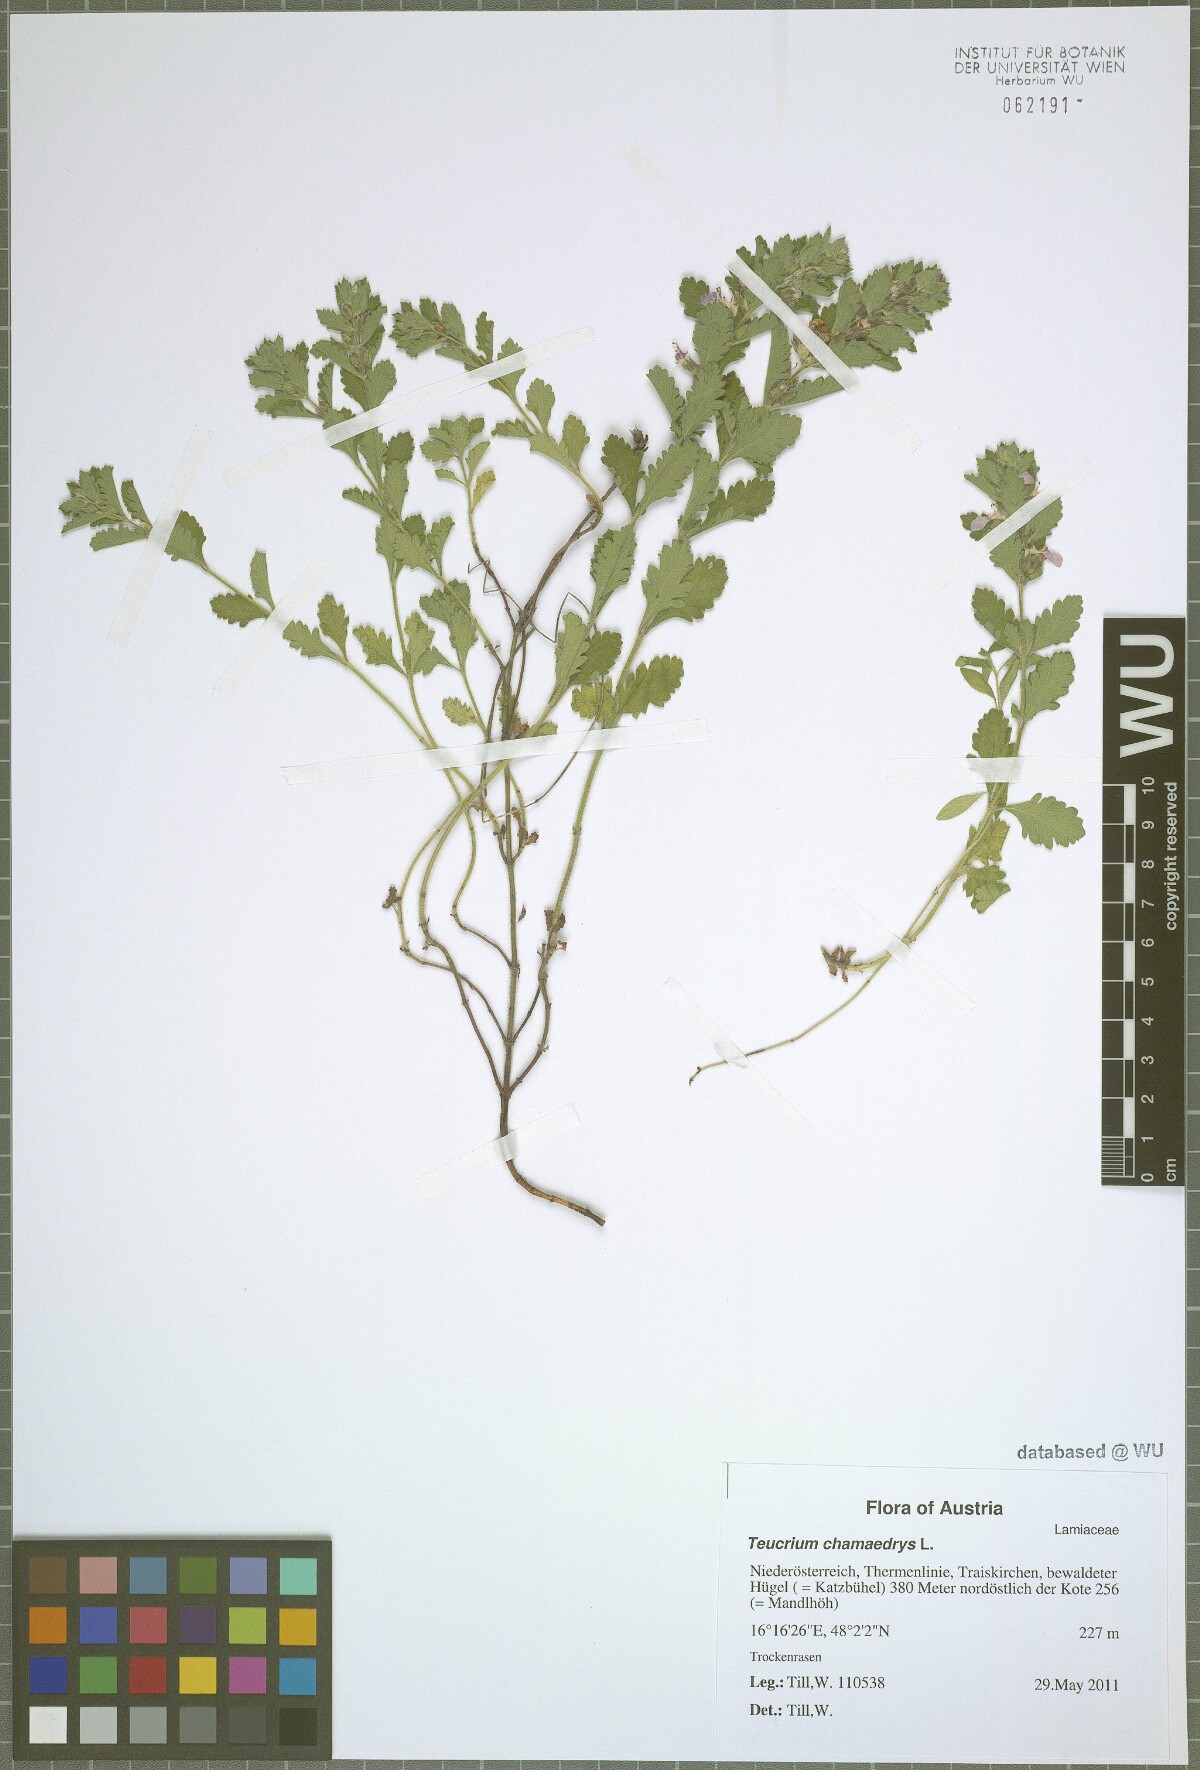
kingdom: Plantae
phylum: Tracheophyta
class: Magnoliopsida
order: Lamiales
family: Lamiaceae
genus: Teucrium
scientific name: Teucrium chamaedrys
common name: Wall germander
